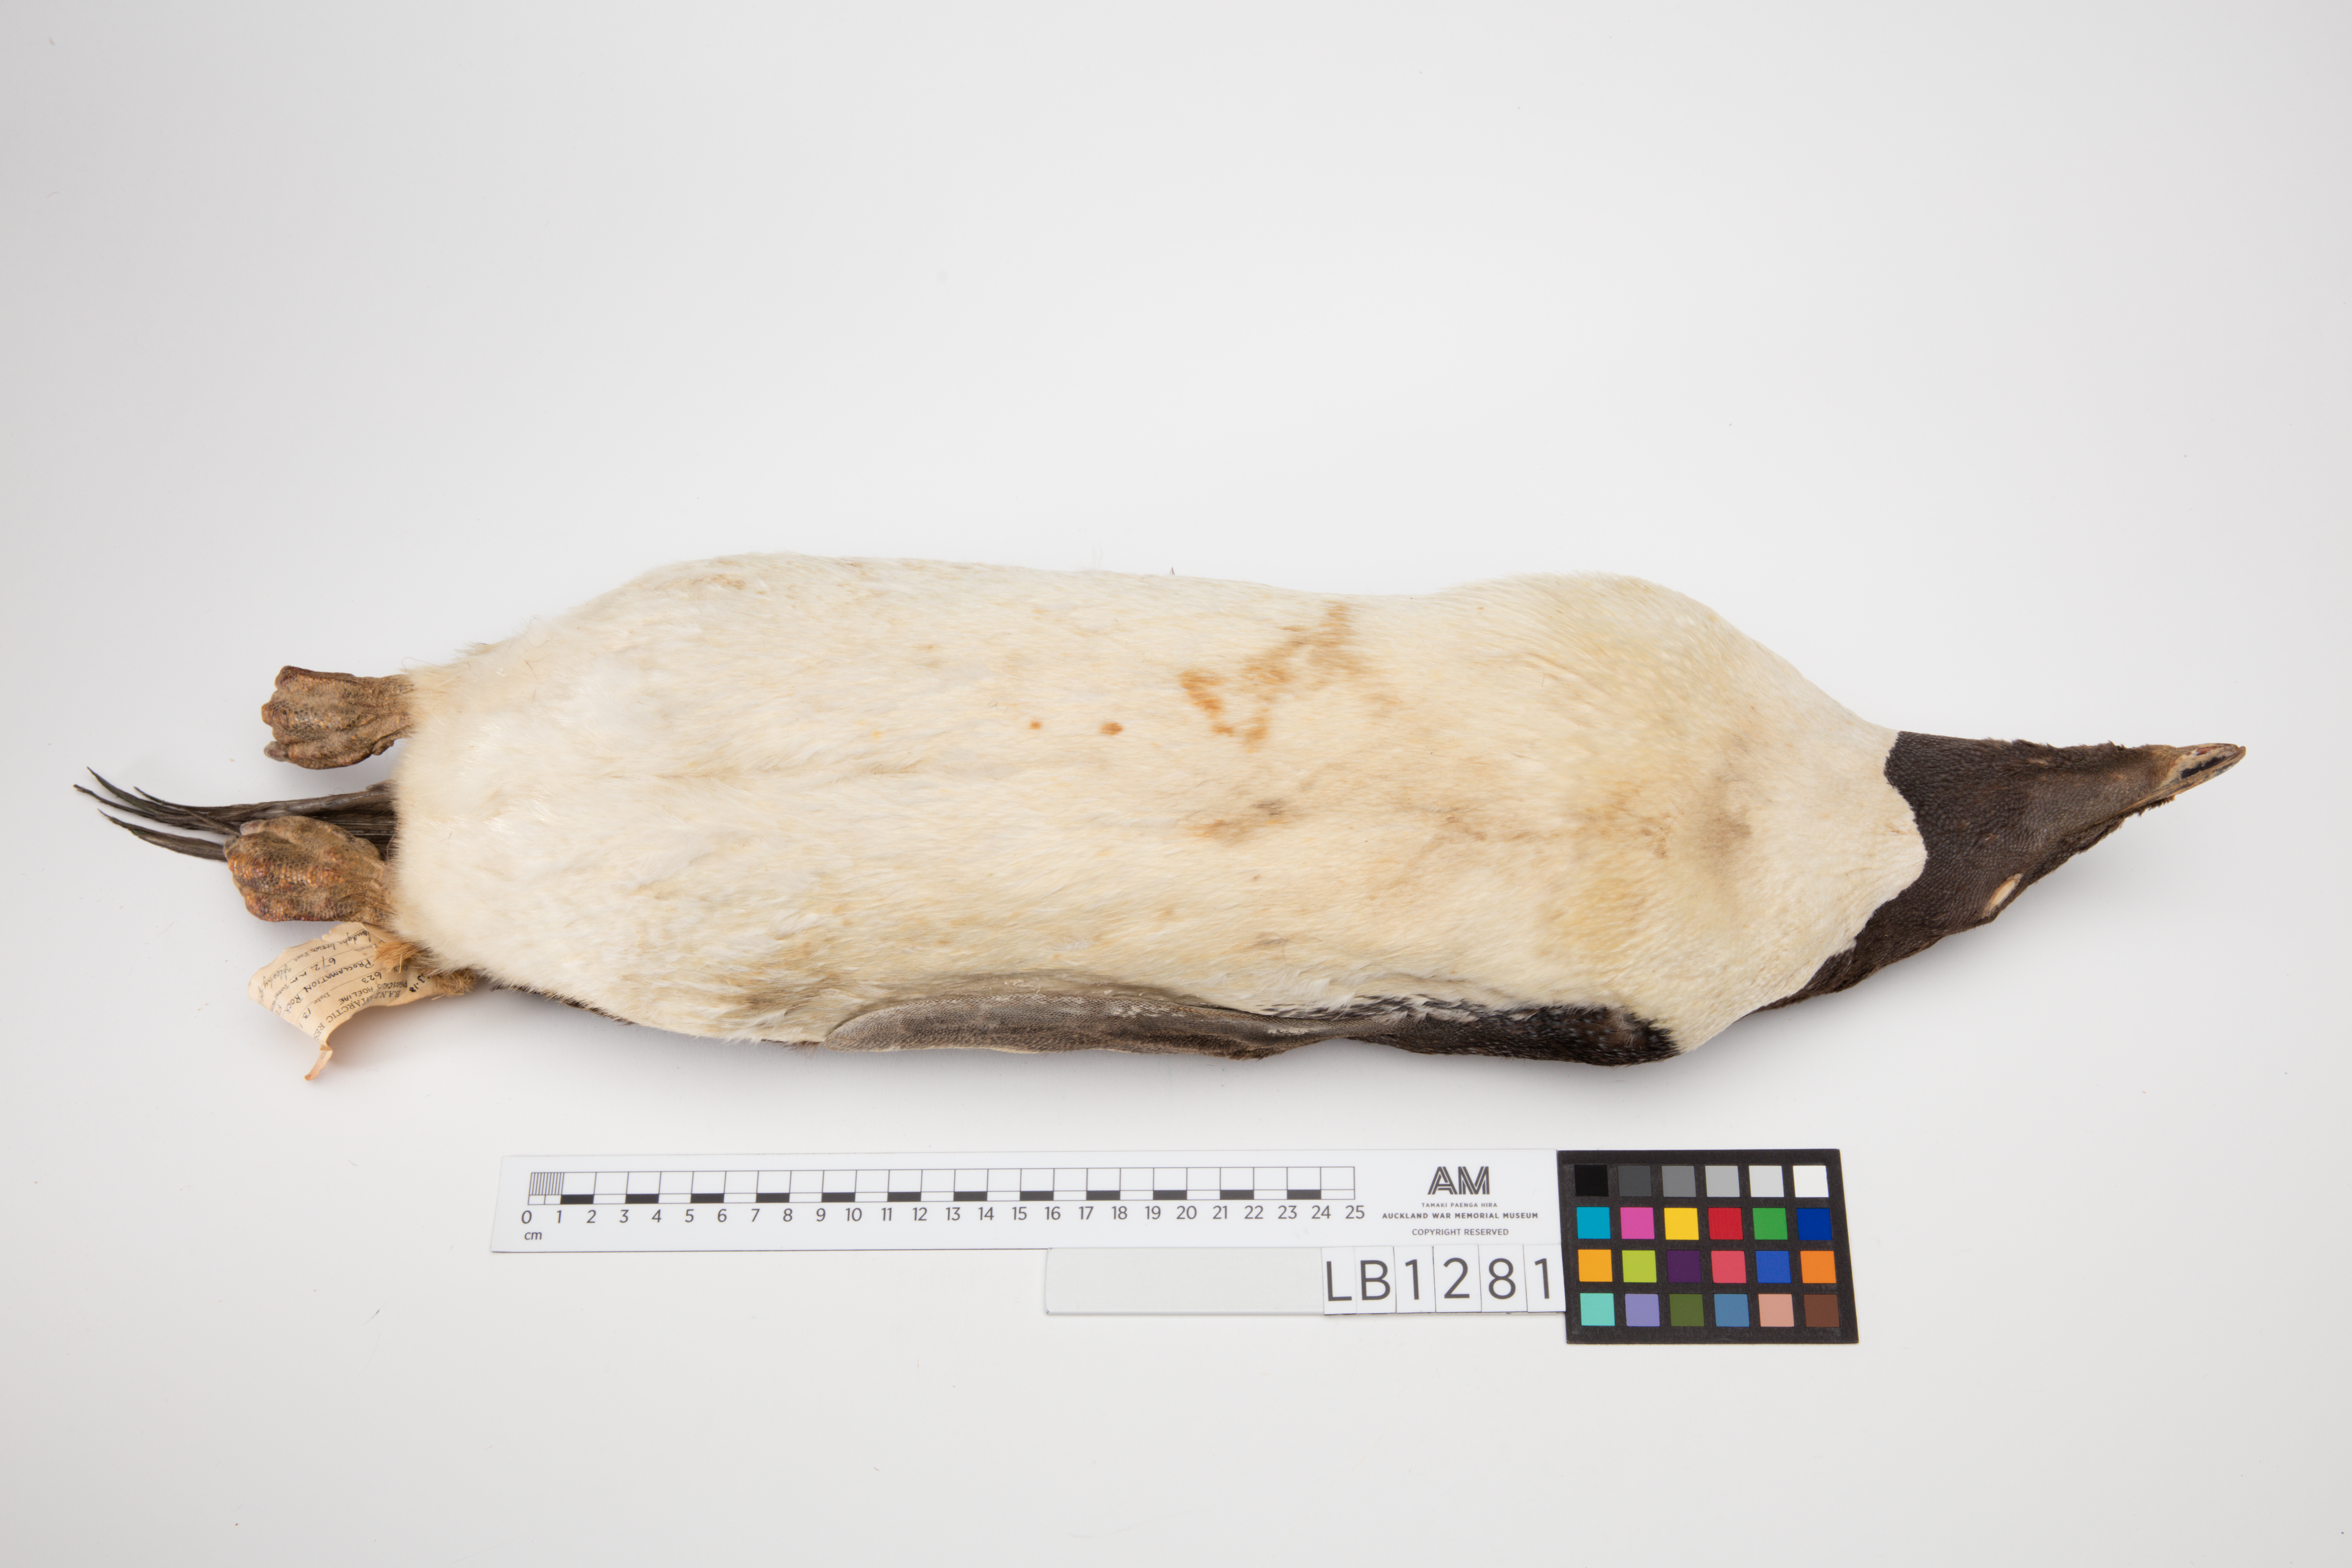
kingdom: Animalia
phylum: Chordata
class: Aves
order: Sphenisciformes
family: Spheniscidae
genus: Pygoscelis
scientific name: Pygoscelis adeliae
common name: Adelie penguin
